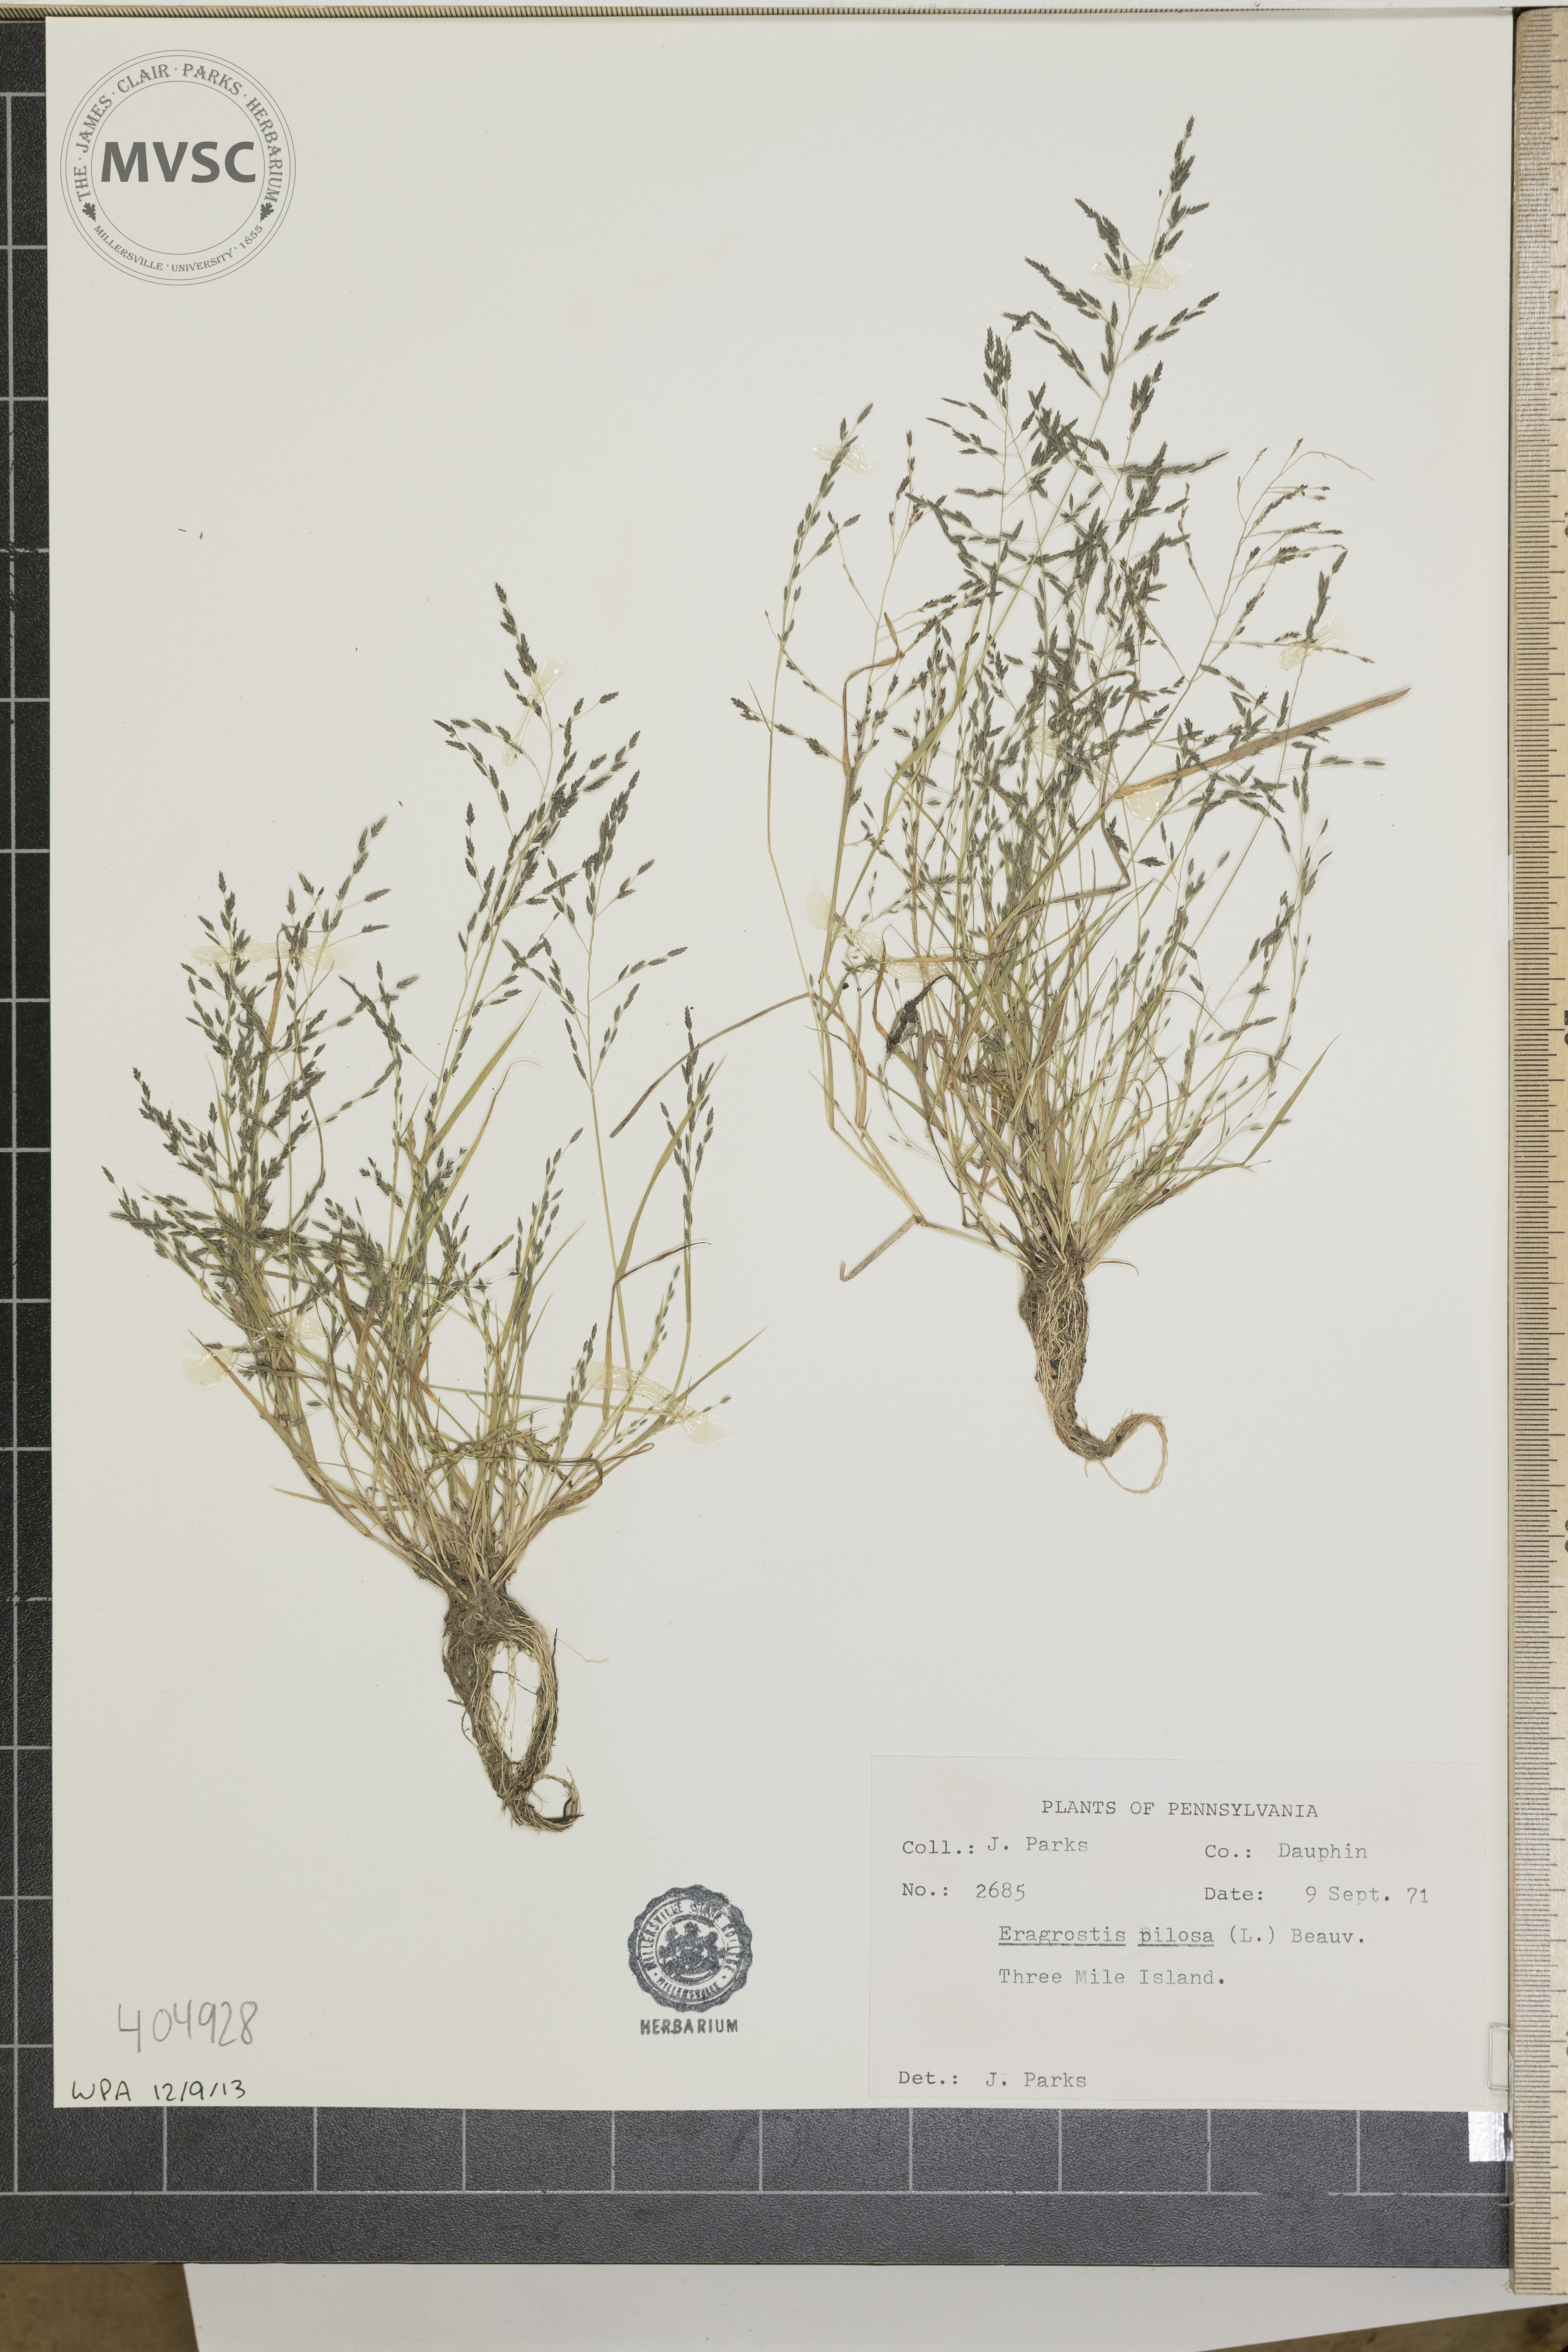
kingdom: Plantae
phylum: Tracheophyta
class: Liliopsida
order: Poales
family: Poaceae
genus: Eragrostis
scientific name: Eragrostis pilosa
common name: Indian lovegrass
